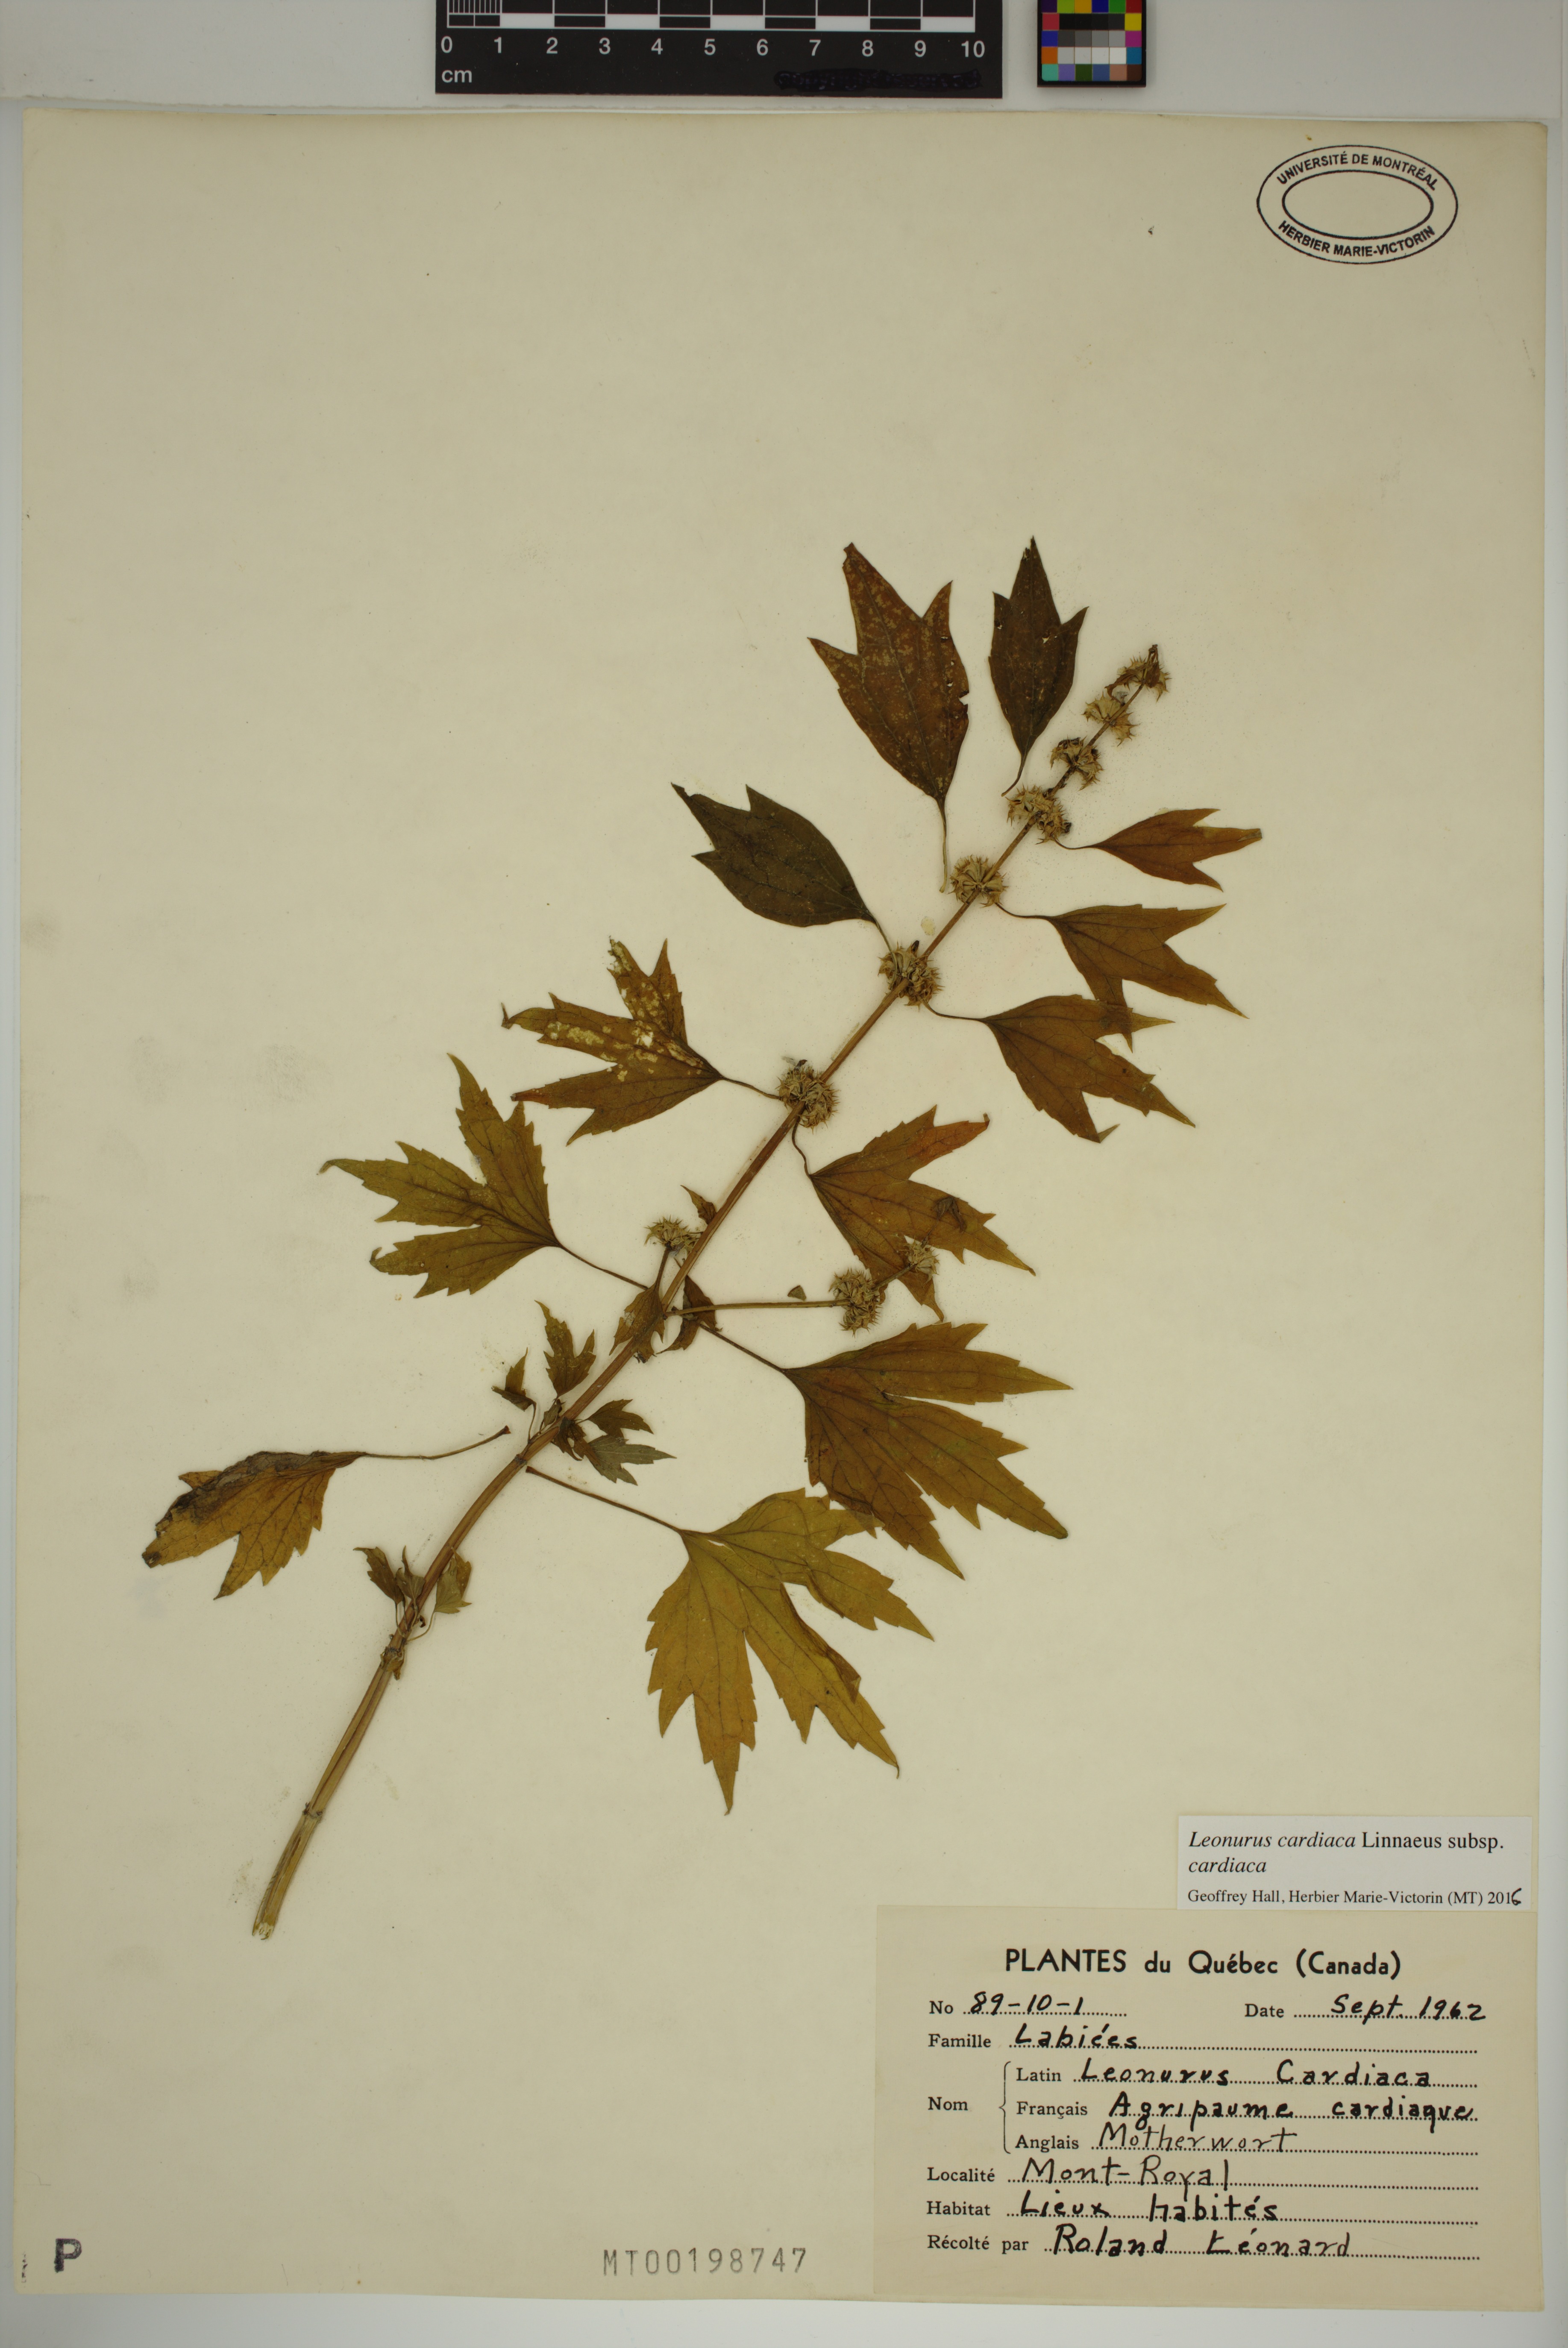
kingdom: Plantae
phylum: Tracheophyta
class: Magnoliopsida
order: Lamiales
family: Lamiaceae
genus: Leonurus
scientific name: Leonurus cardiaca
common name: Motherwort
